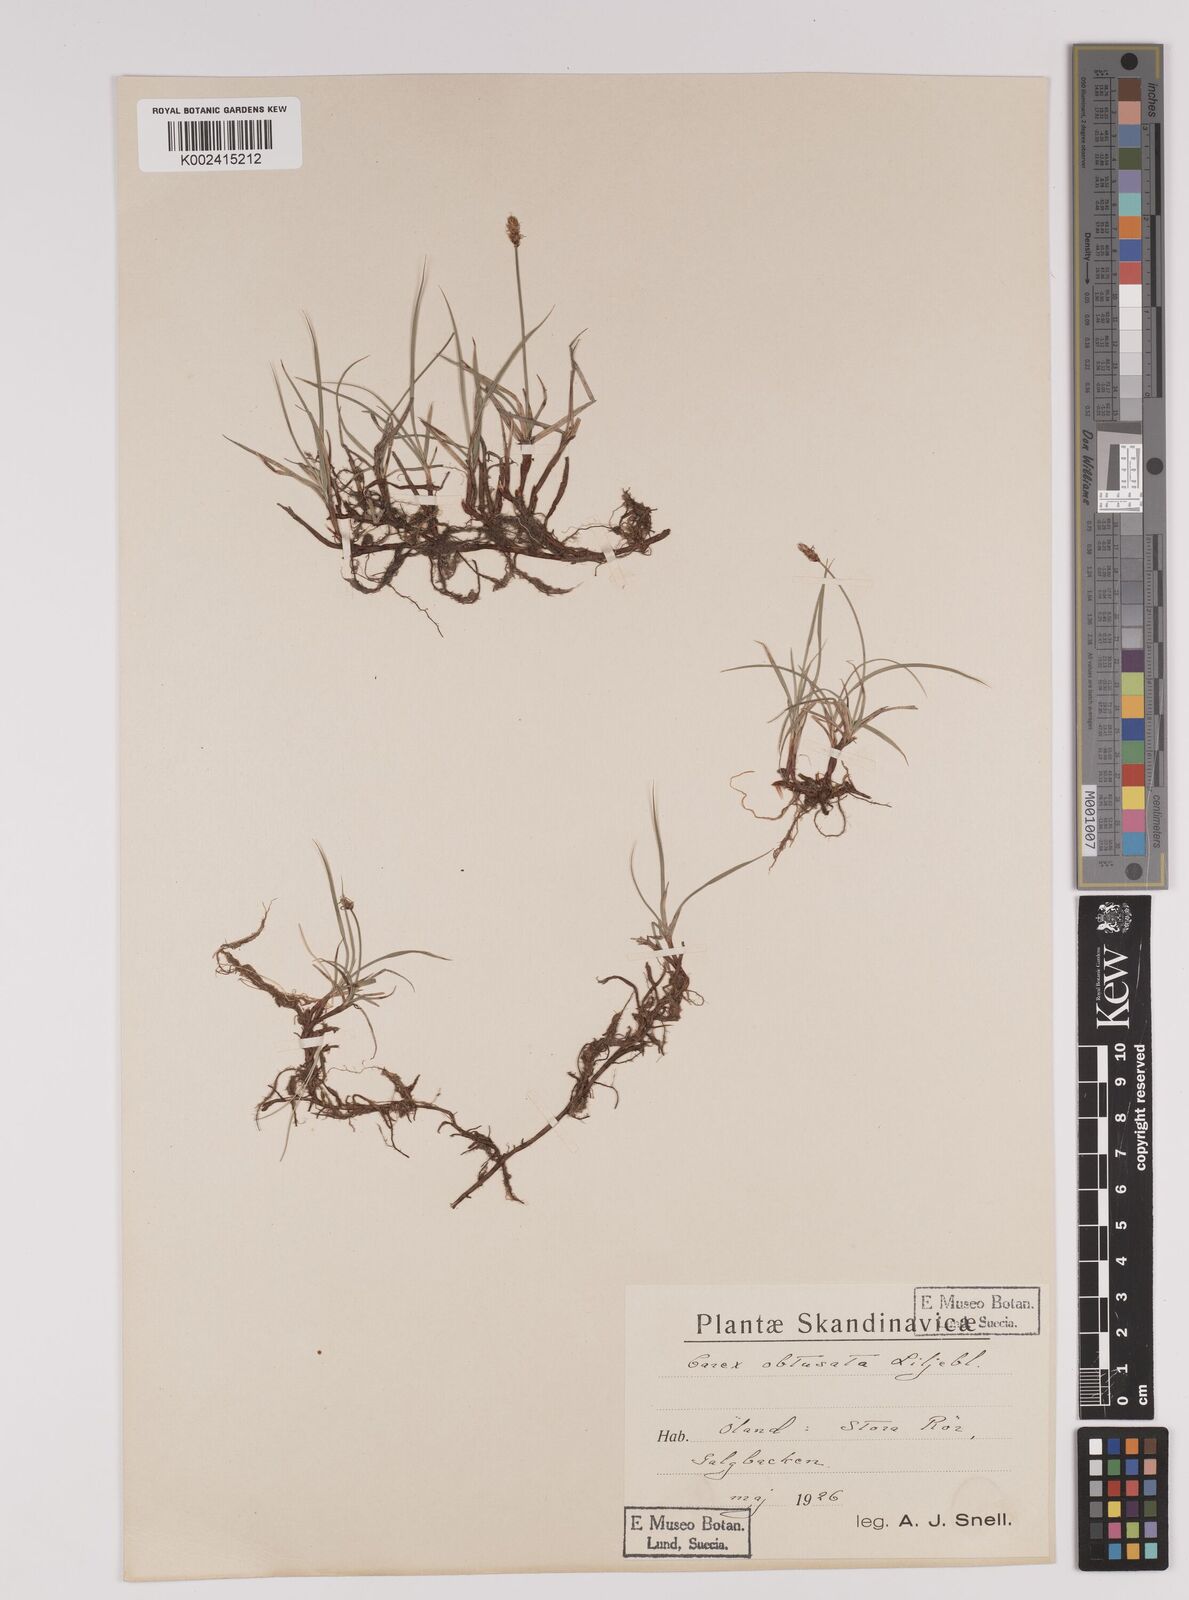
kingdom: Plantae
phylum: Tracheophyta
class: Liliopsida
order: Poales
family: Cyperaceae
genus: Carex
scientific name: Carex obtusata
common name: Blunt sedge
